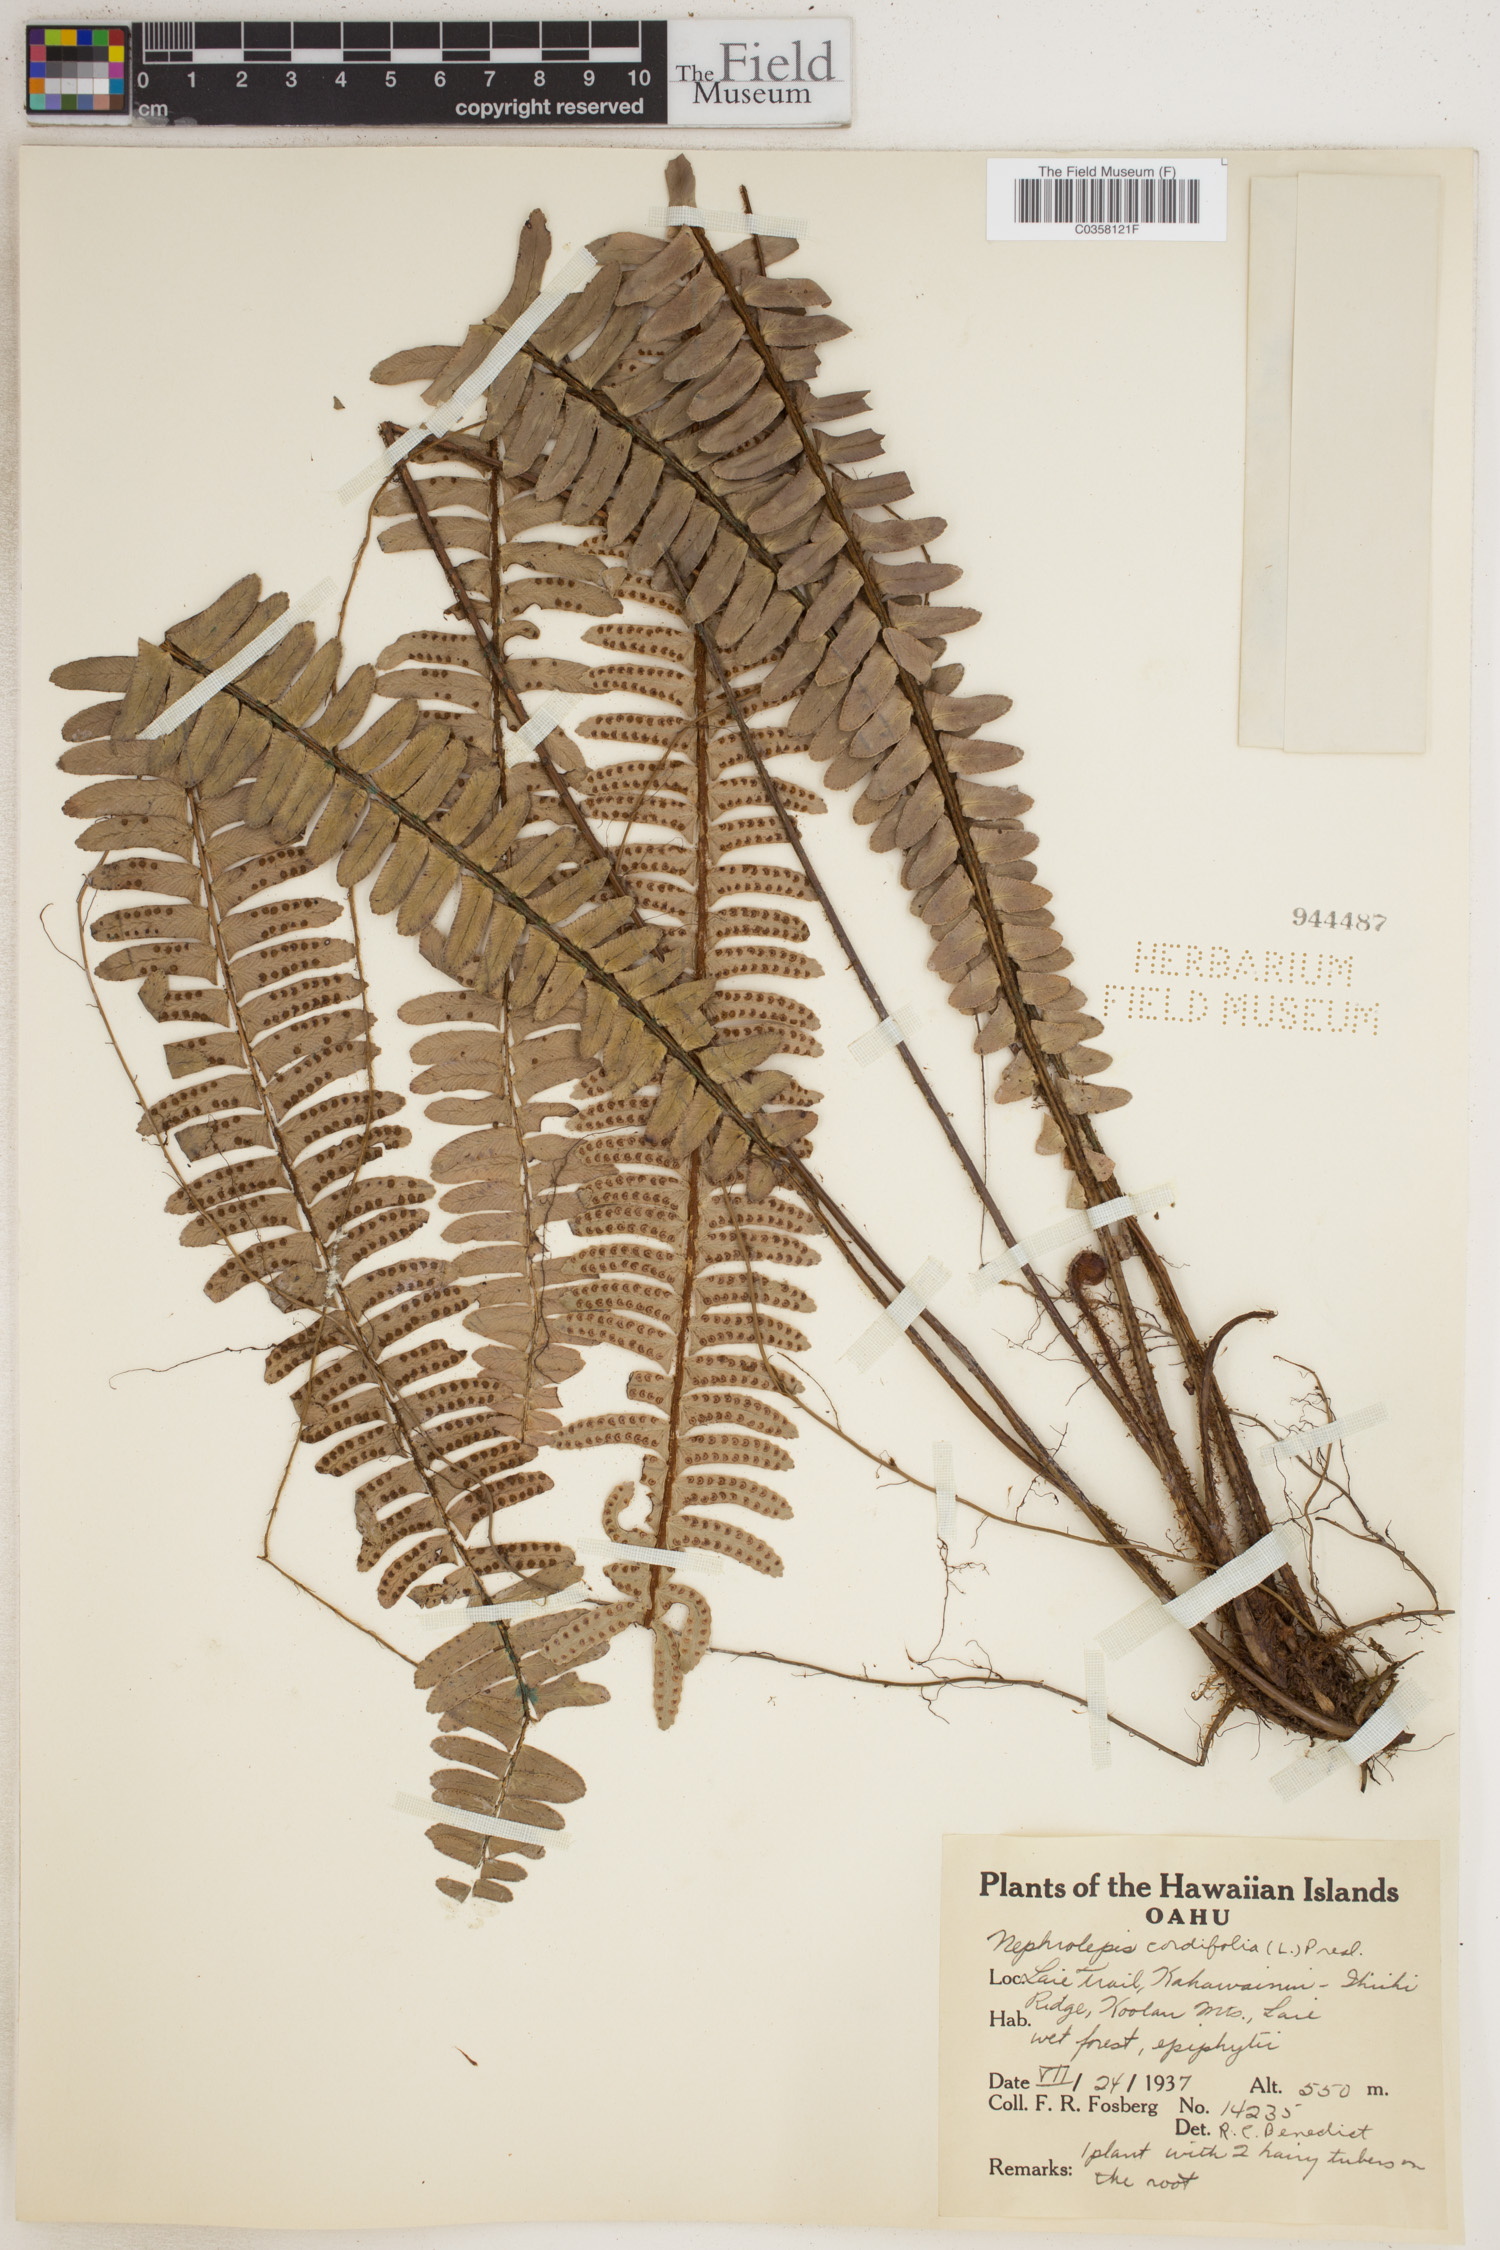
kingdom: Plantae
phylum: Tracheophyta
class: Polypodiopsida
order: Polypodiales
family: Nephrolepidaceae
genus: Nephrolepis
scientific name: Nephrolepis cordifolia
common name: Narrow swordfern
